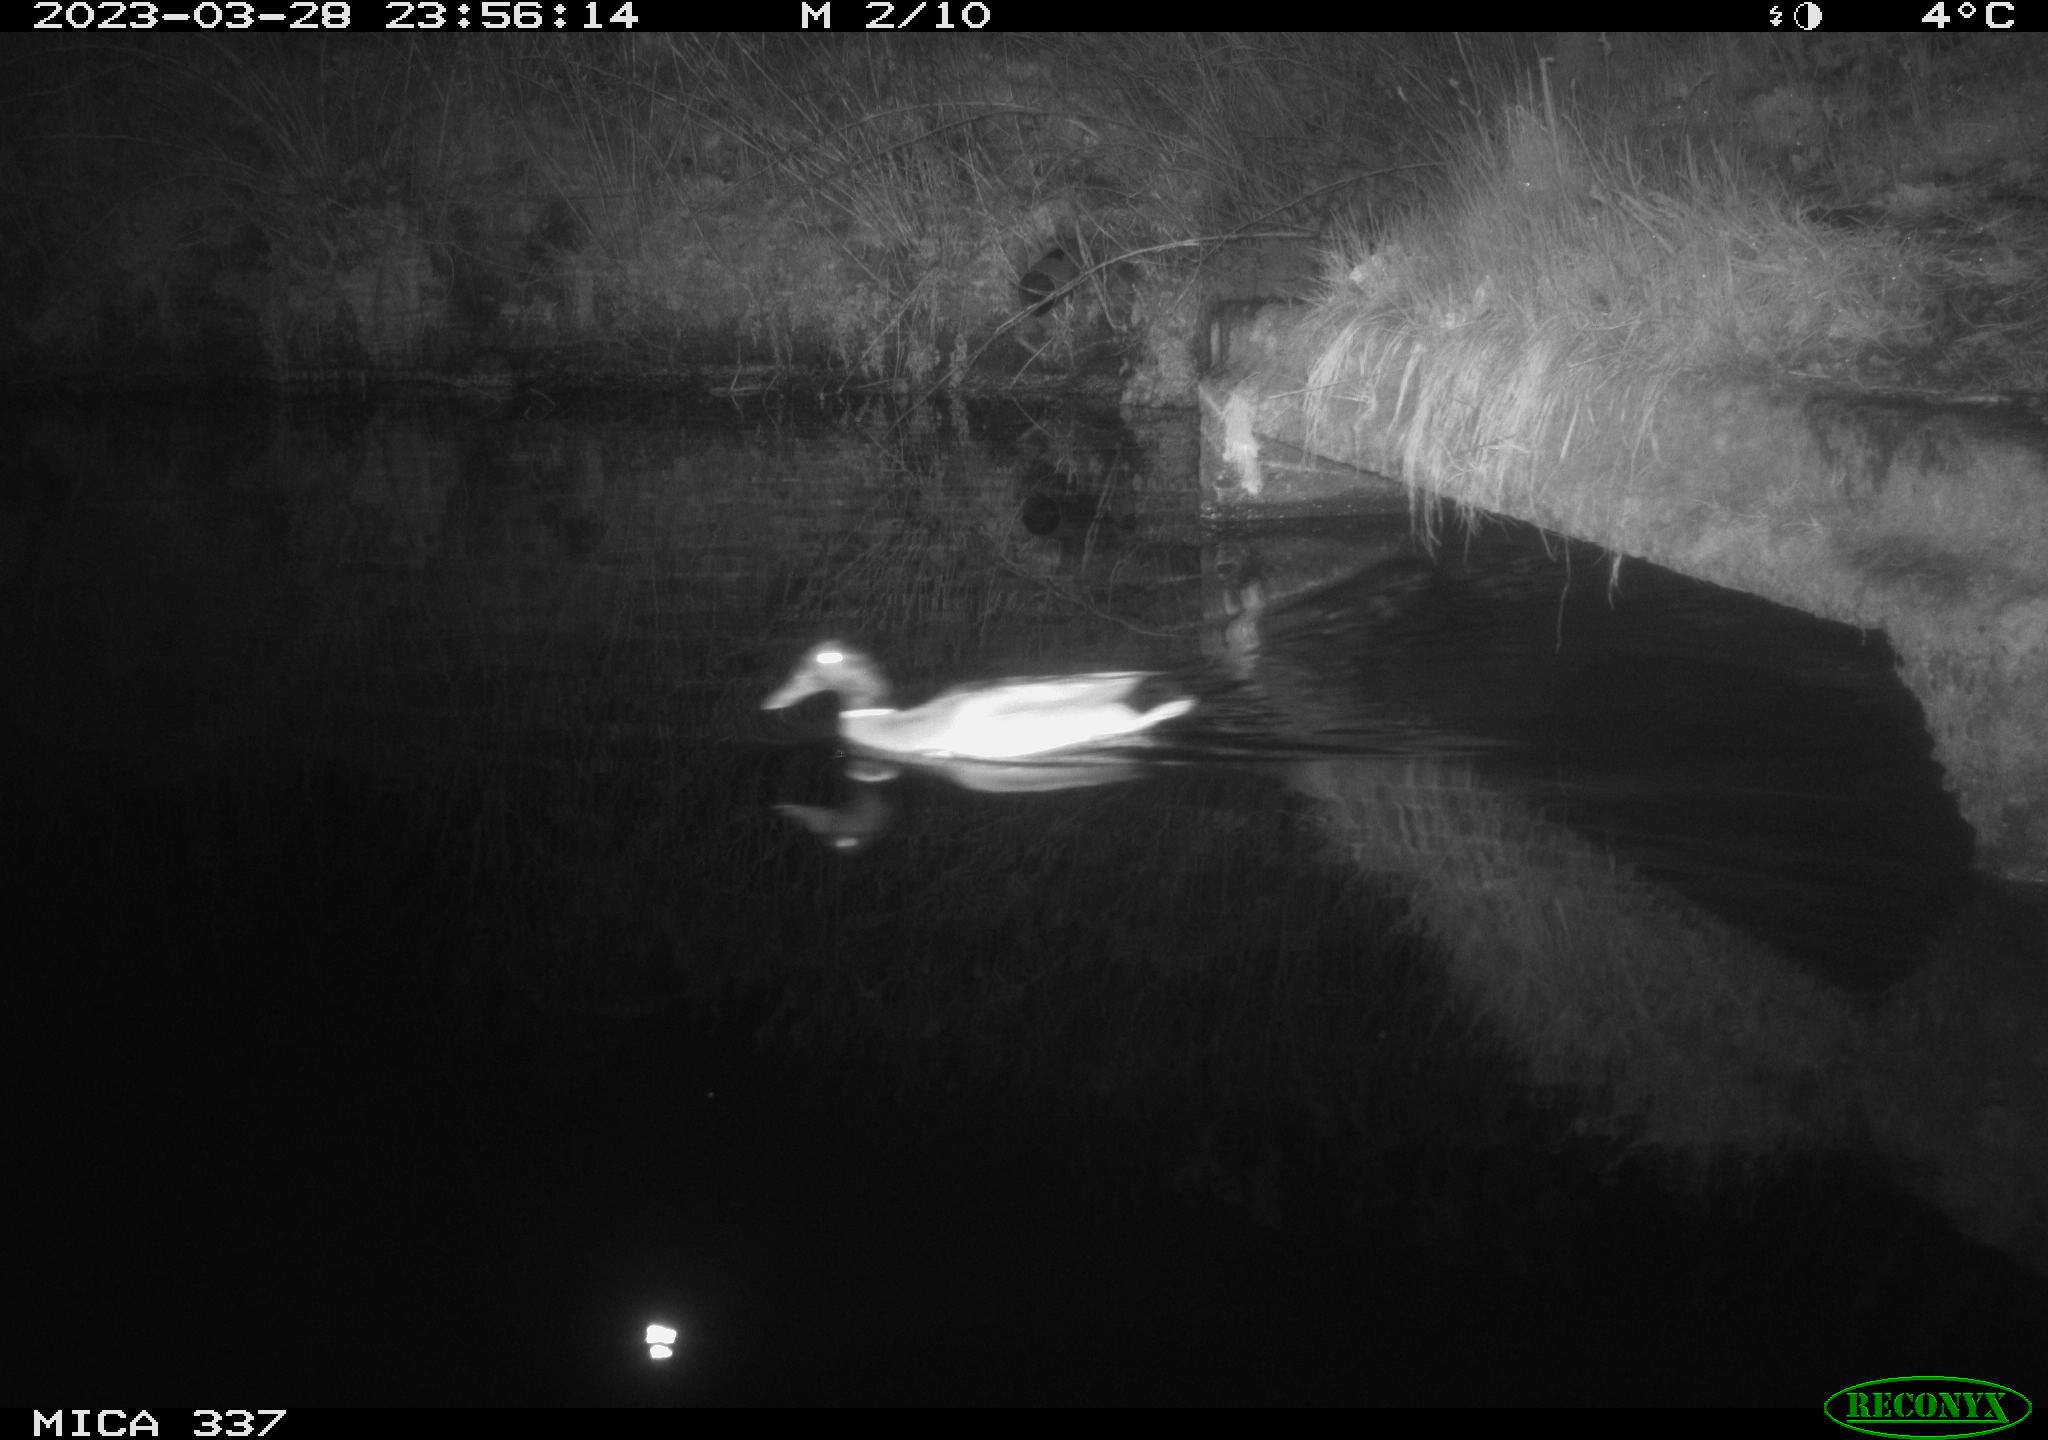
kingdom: Animalia
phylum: Chordata
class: Aves
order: Anseriformes
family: Anatidae
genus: Anas
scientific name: Anas
